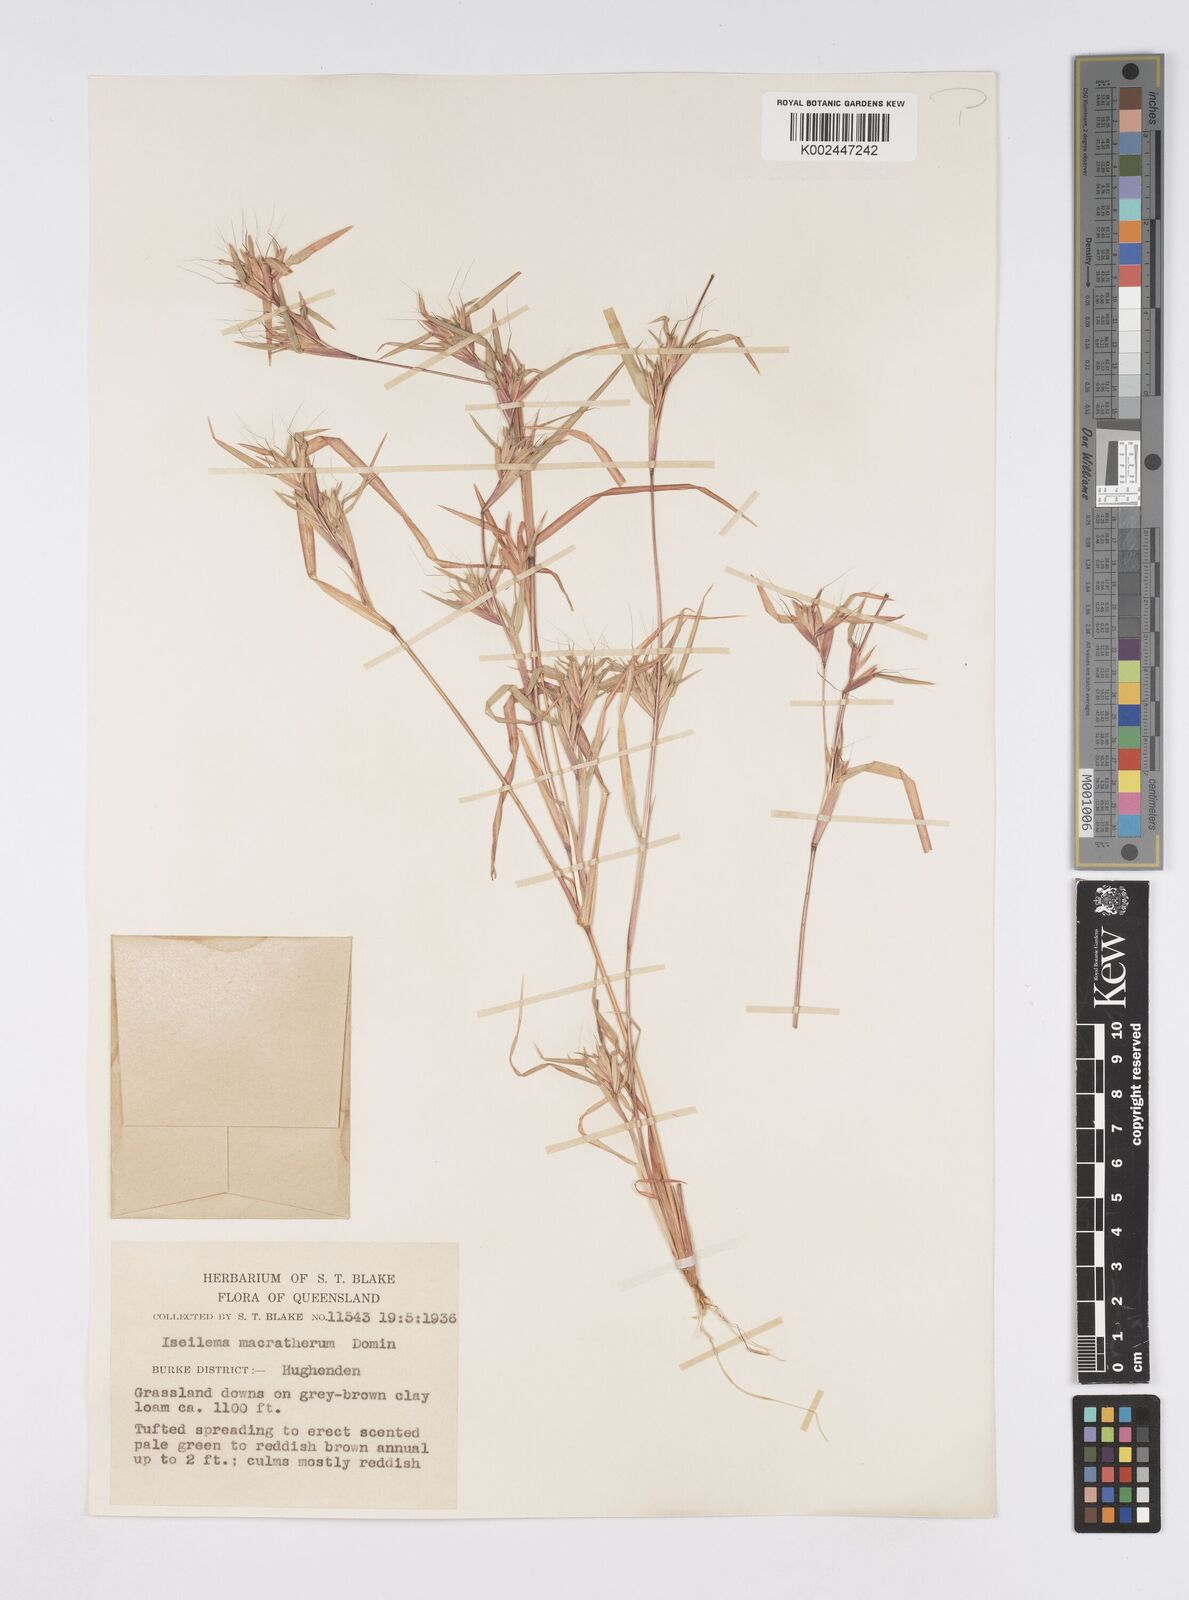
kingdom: Plantae
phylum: Tracheophyta
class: Liliopsida
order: Poales
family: Poaceae
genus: Iseilema
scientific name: Iseilema macratherum
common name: Bull flinders grass
